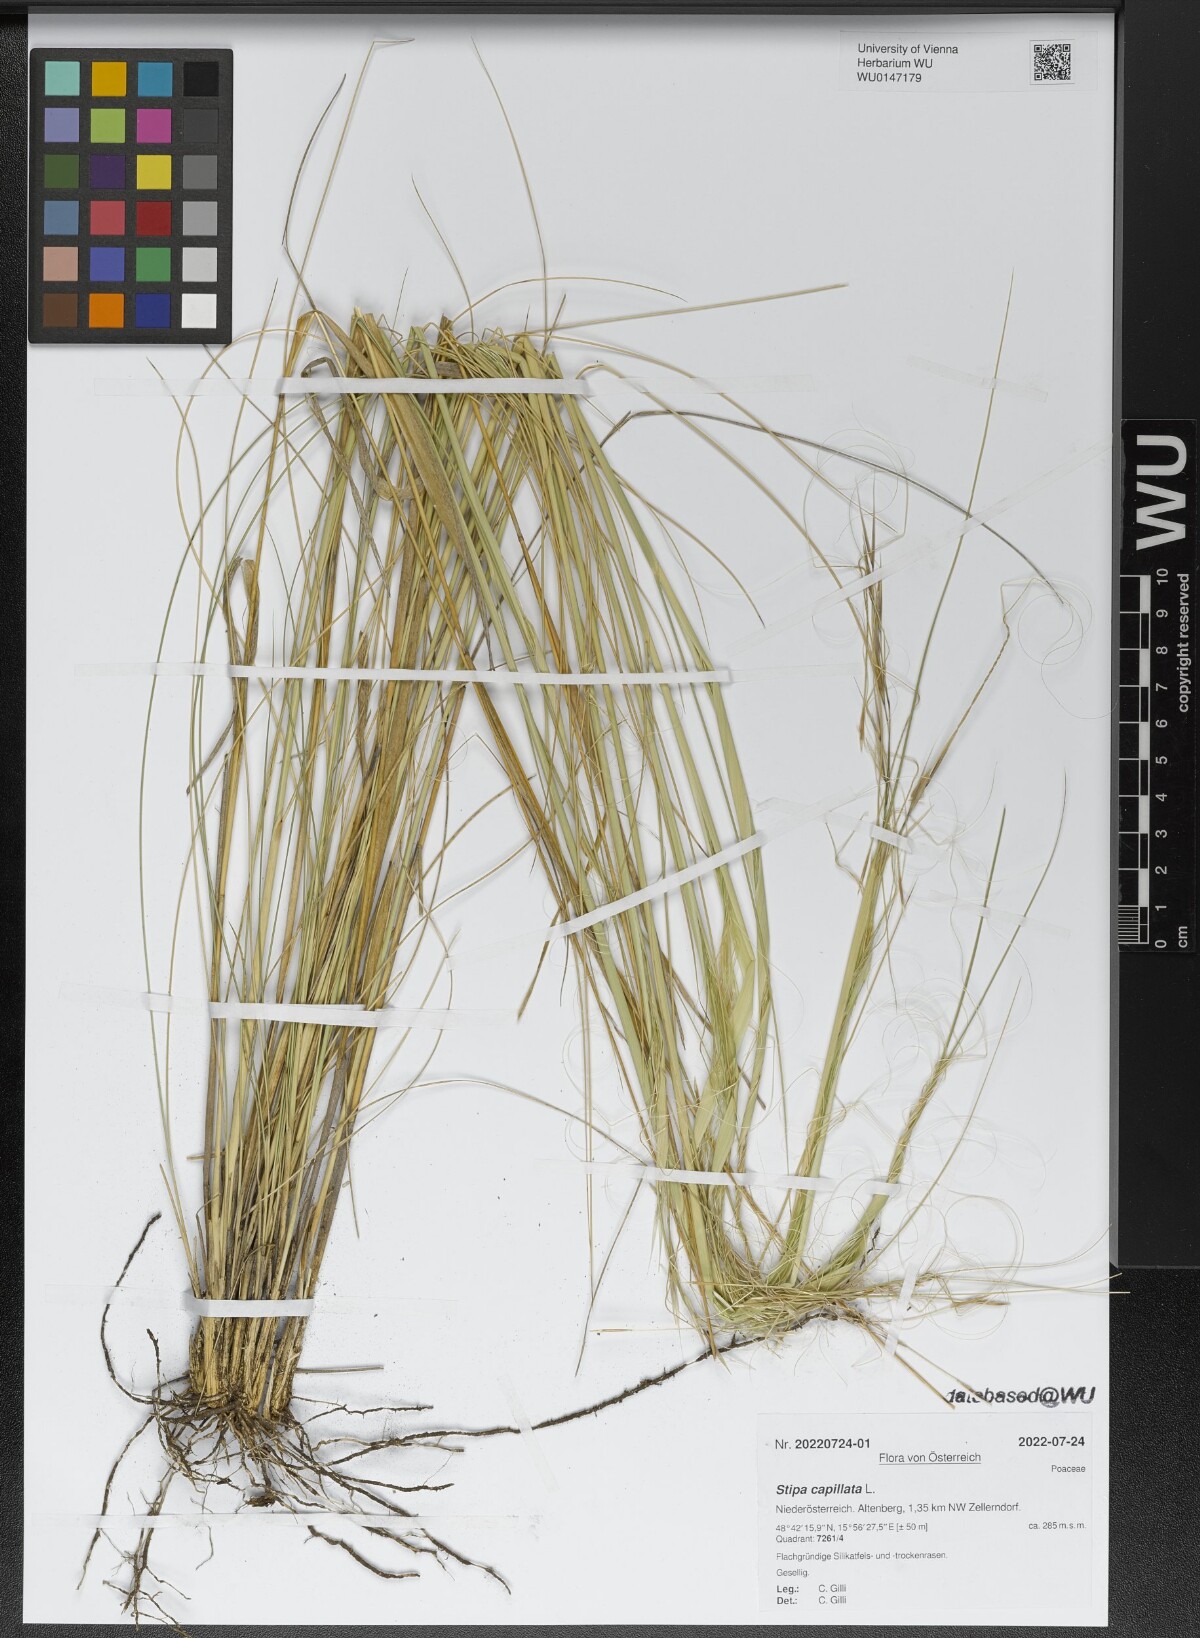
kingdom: Plantae
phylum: Tracheophyta
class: Liliopsida
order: Poales
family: Poaceae
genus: Stipa
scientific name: Stipa capillata
